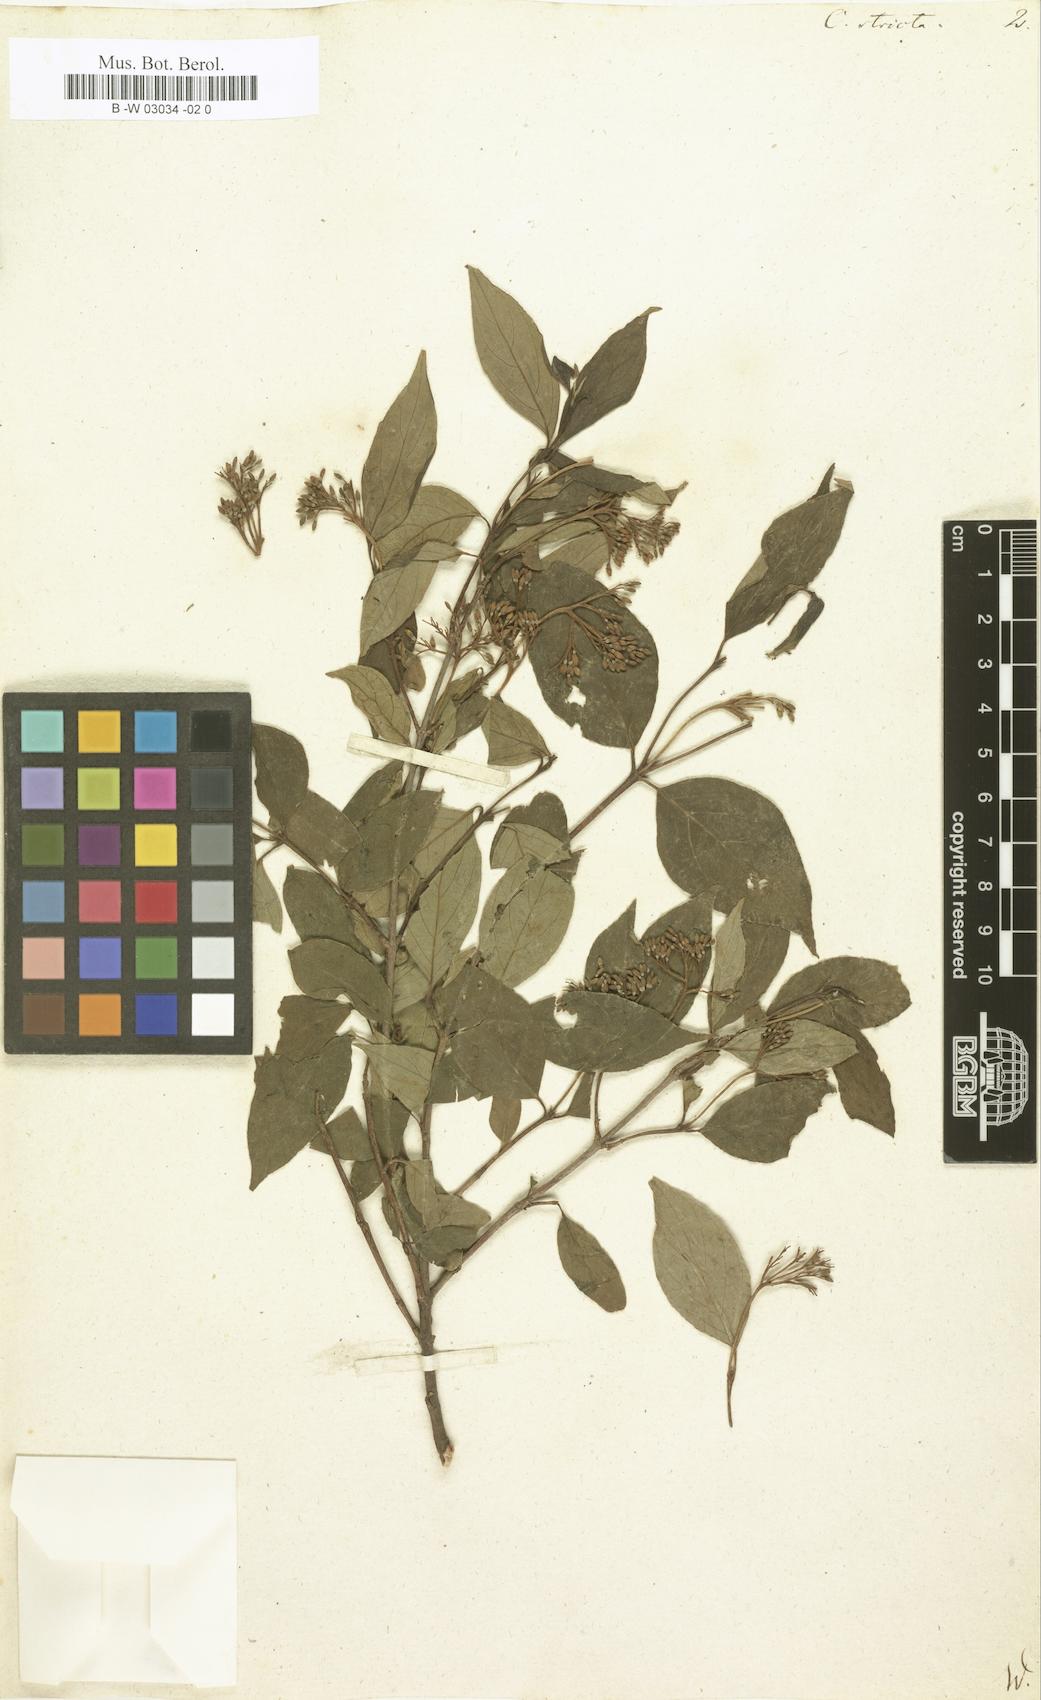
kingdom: Plantae
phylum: Tracheophyta
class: Magnoliopsida
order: Cornales
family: Cornaceae
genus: Cornus
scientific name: Cornus stricta
